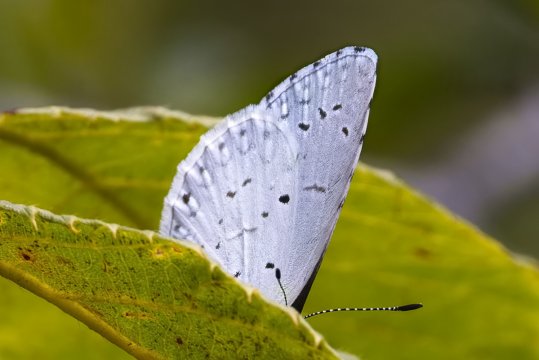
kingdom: Animalia
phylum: Arthropoda
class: Insecta
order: Lepidoptera
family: Lycaenidae
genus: Cyaniris
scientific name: Cyaniris neglecta
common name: Summer Azure
